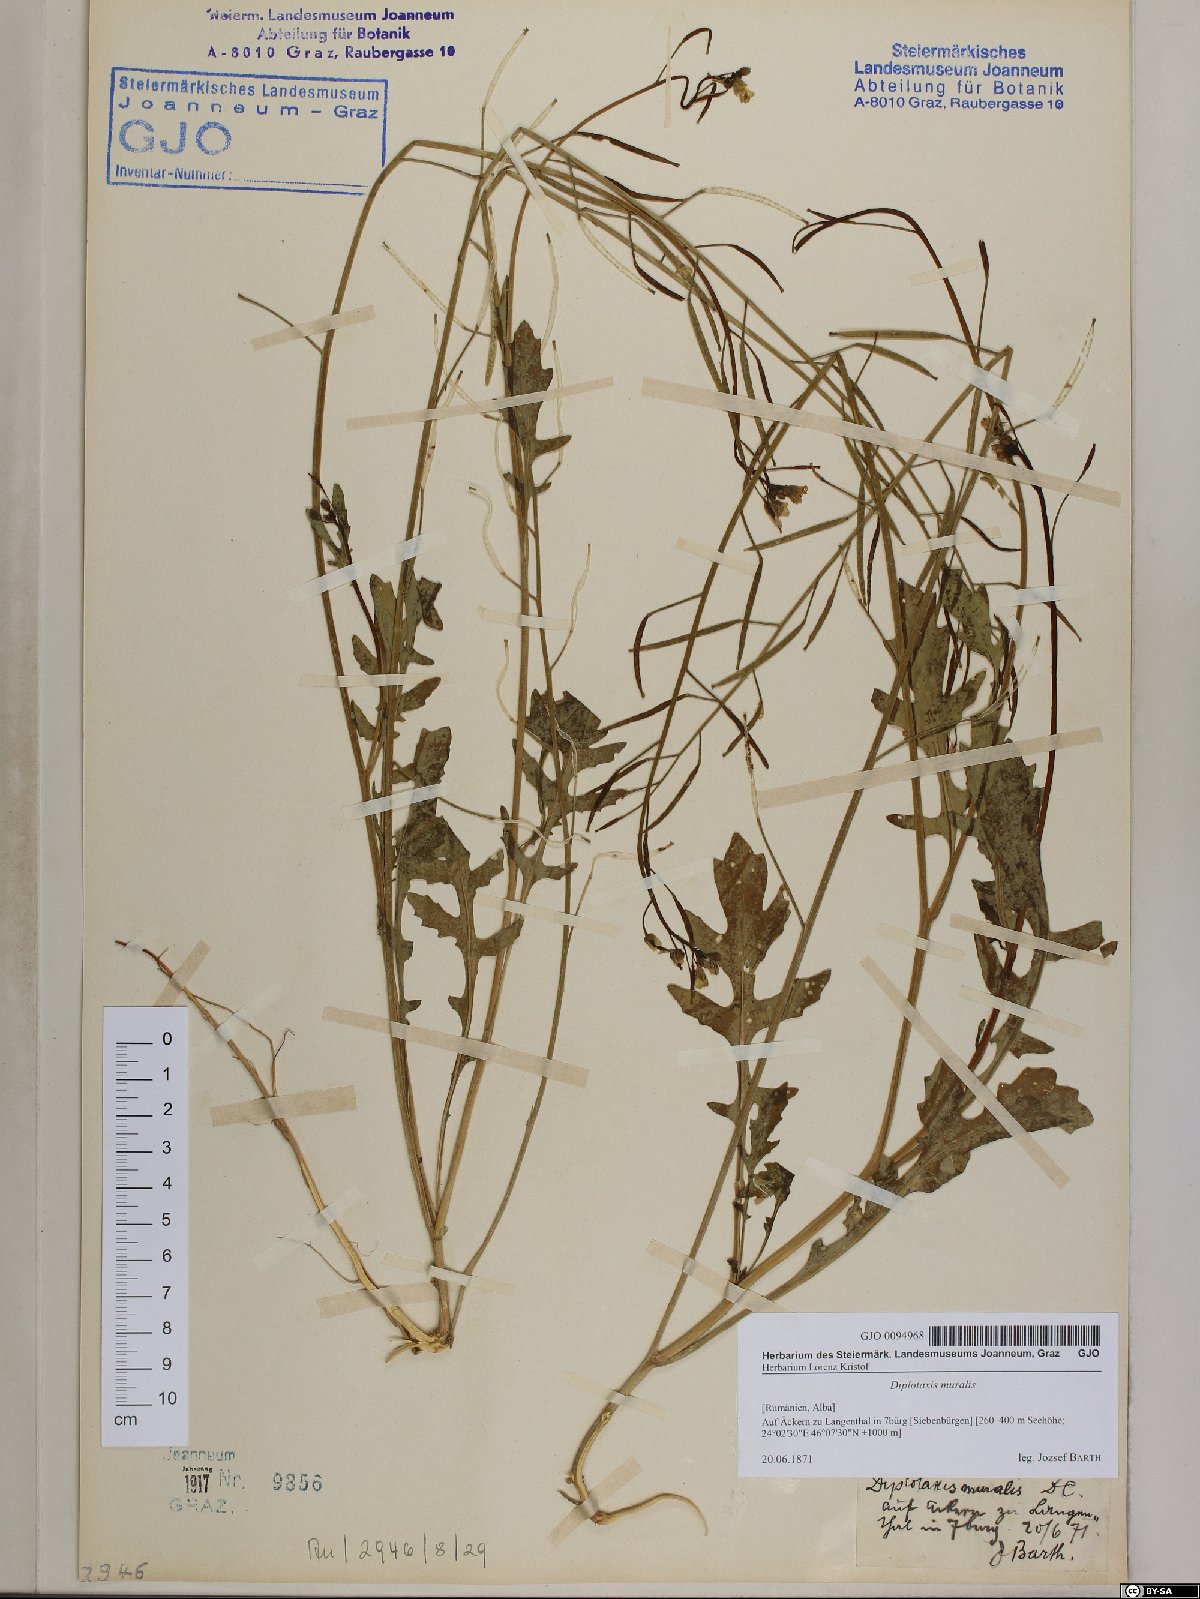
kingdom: Plantae
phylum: Tracheophyta
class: Magnoliopsida
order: Brassicales
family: Brassicaceae
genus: Diplotaxis
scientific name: Diplotaxis muralis
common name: Annual wall-rocket
